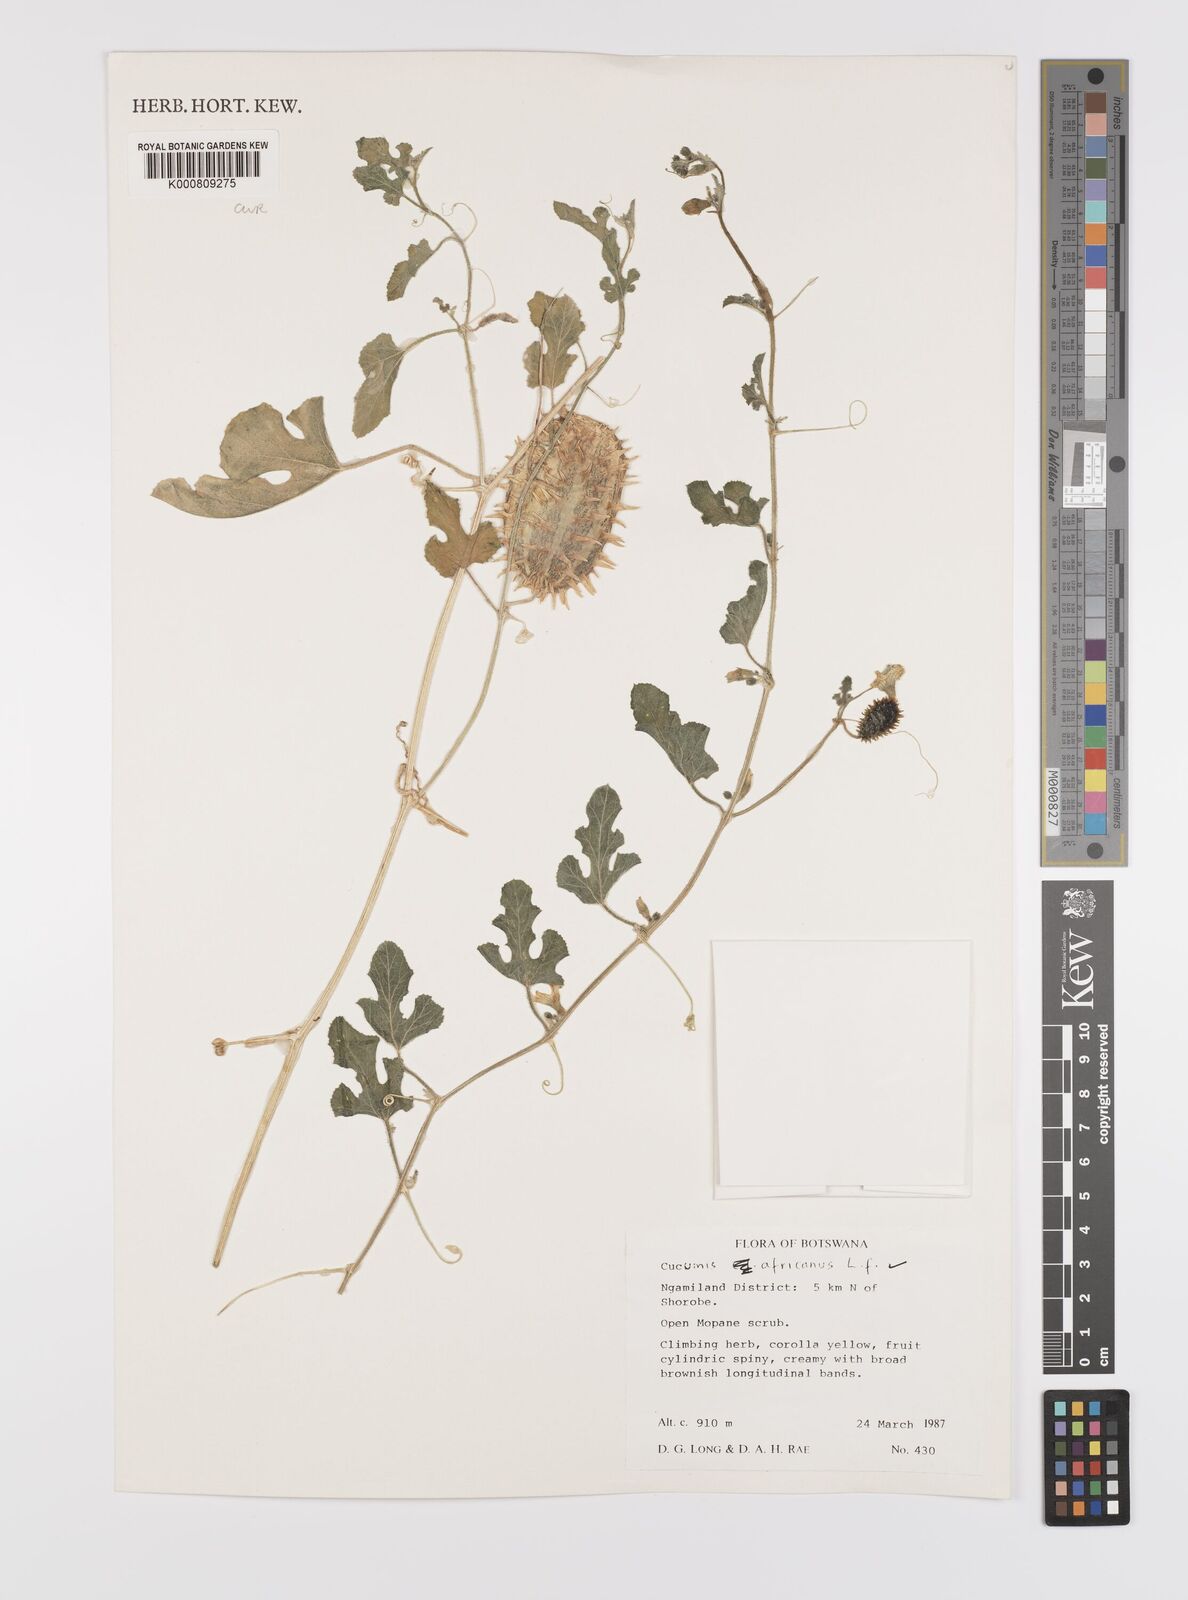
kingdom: Plantae
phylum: Tracheophyta
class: Magnoliopsida
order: Cucurbitales
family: Cucurbitaceae
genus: Cucumis
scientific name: Cucumis africanus
